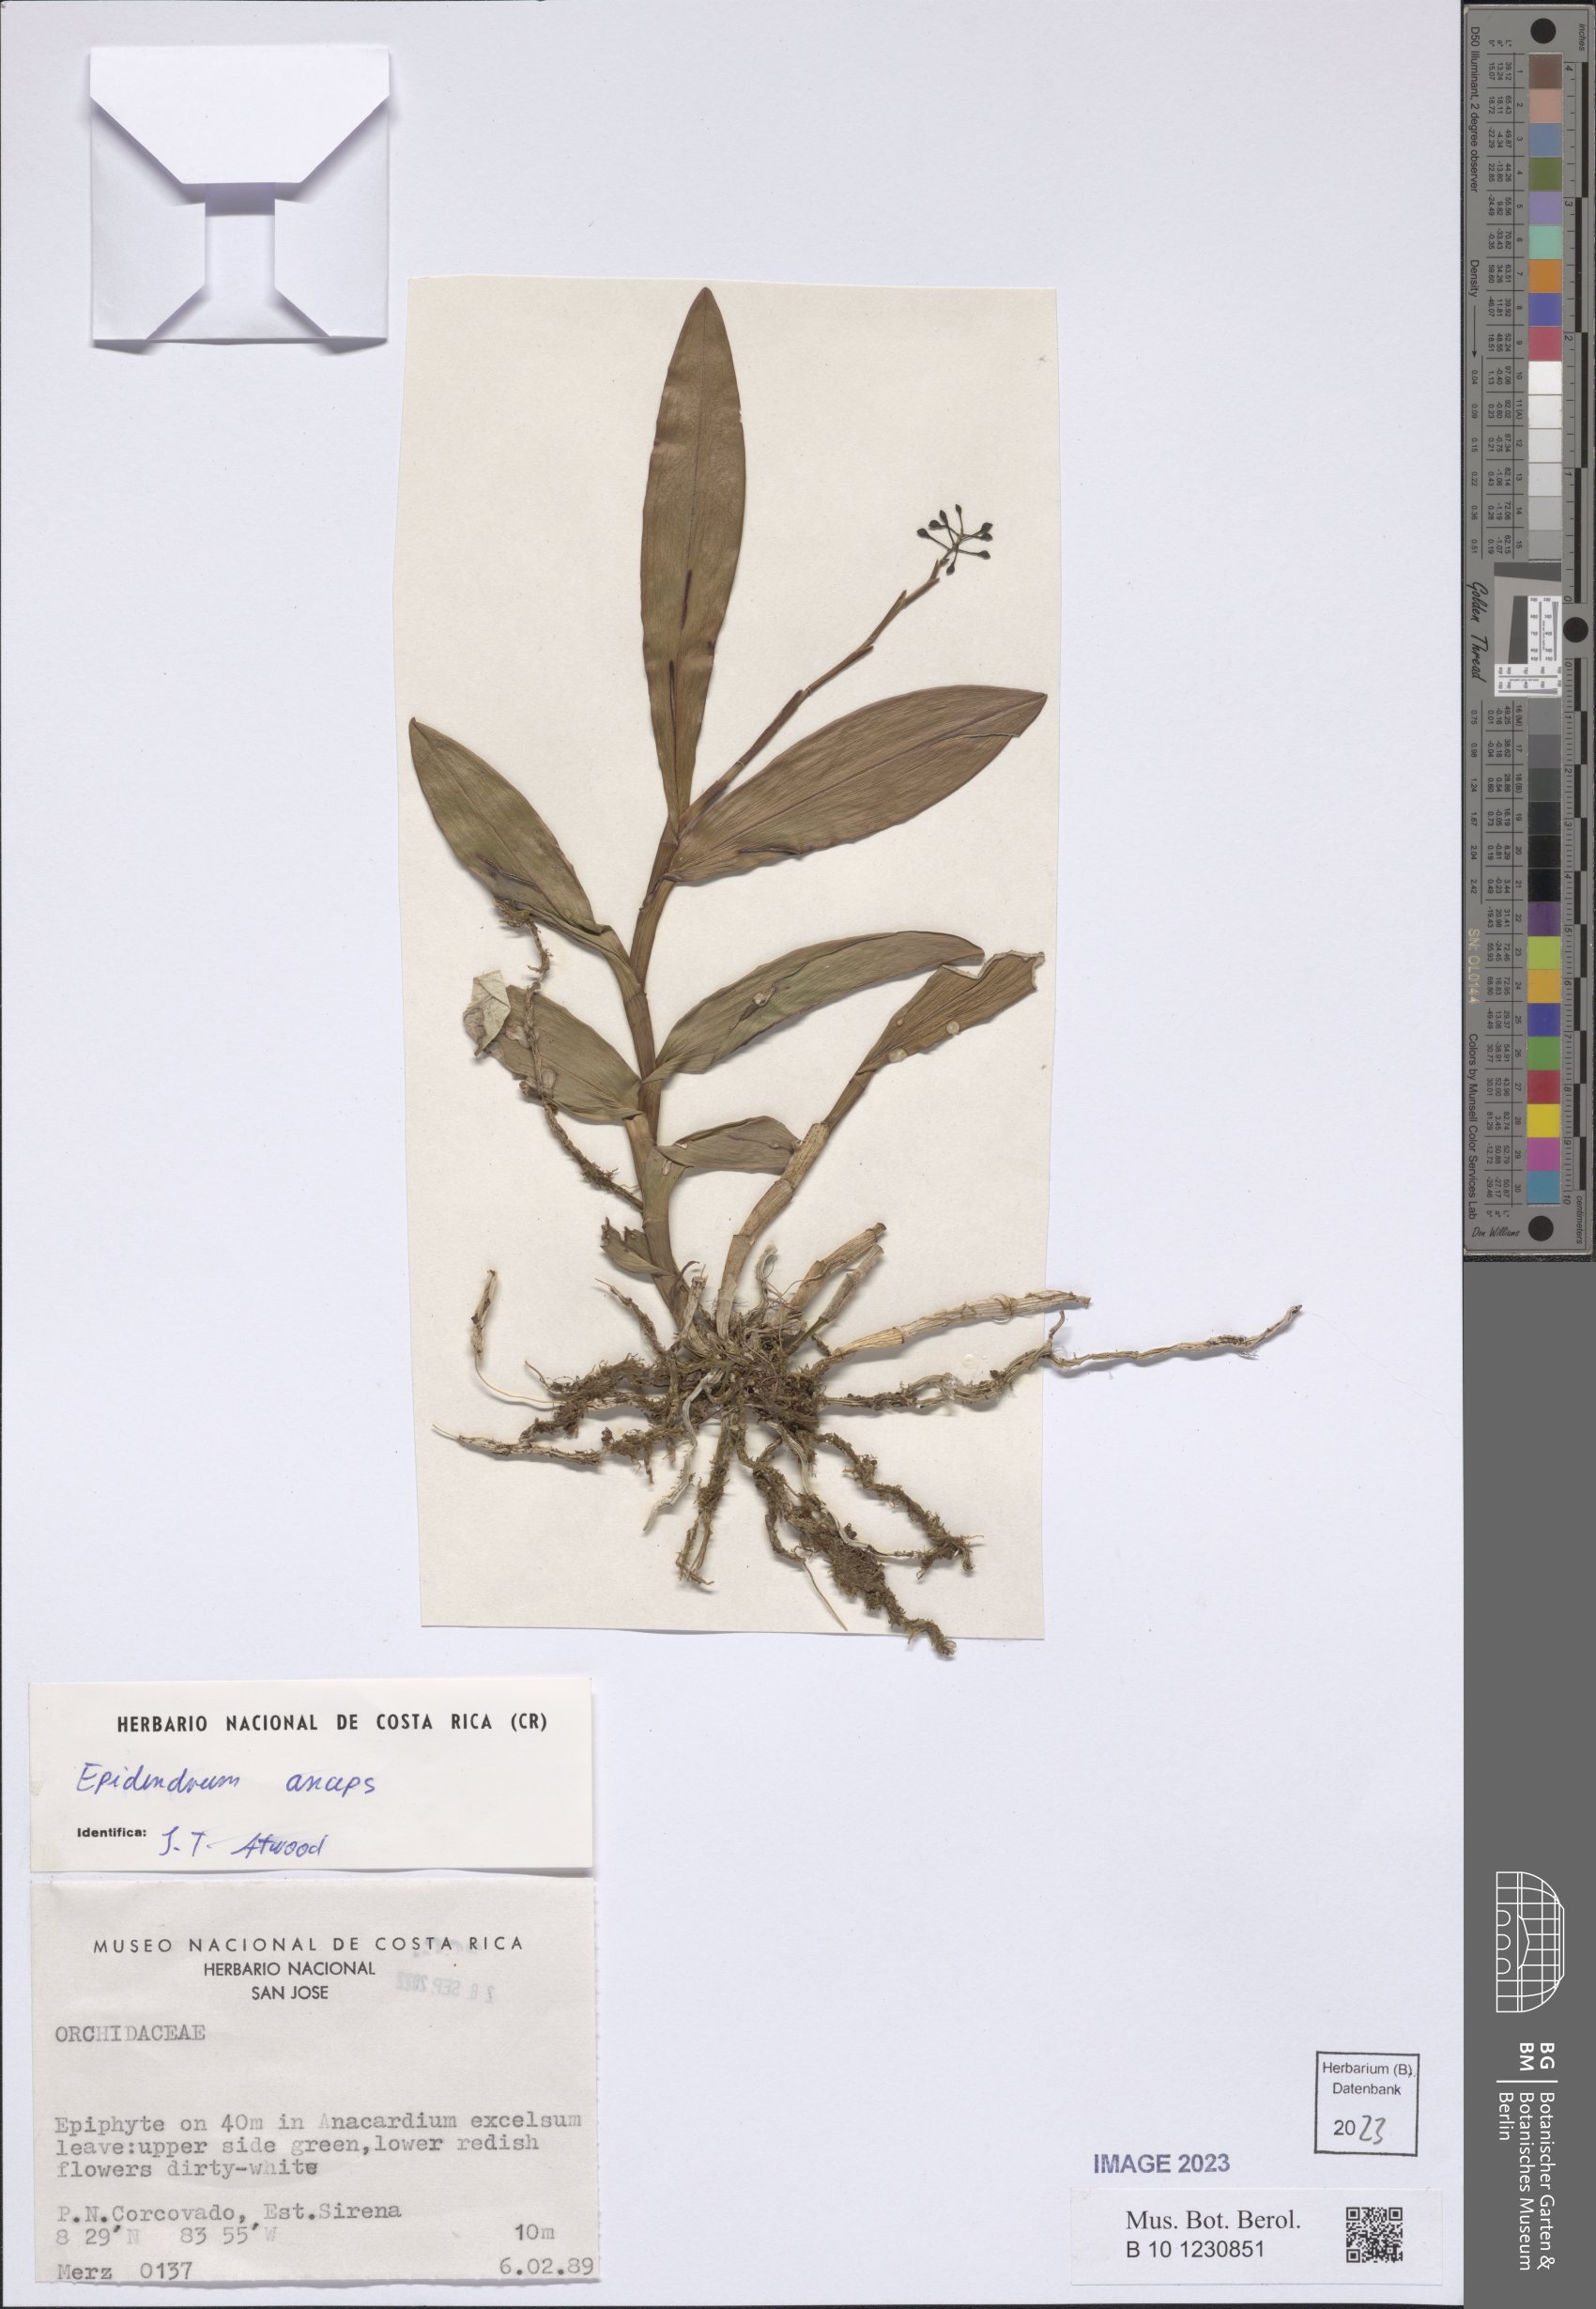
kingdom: Plantae
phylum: Tracheophyta
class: Liliopsida
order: Asparagales
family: Orchidaceae
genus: Epidendrum
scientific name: Epidendrum anceps
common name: Brown-flower butterfly orchid
